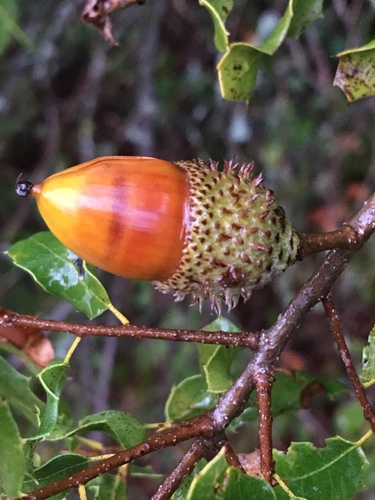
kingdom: Plantae
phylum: Tracheophyta
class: Magnoliopsida
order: Fagales
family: Fagaceae
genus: Quercus
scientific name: Quercus coccifera
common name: Kermes oak
